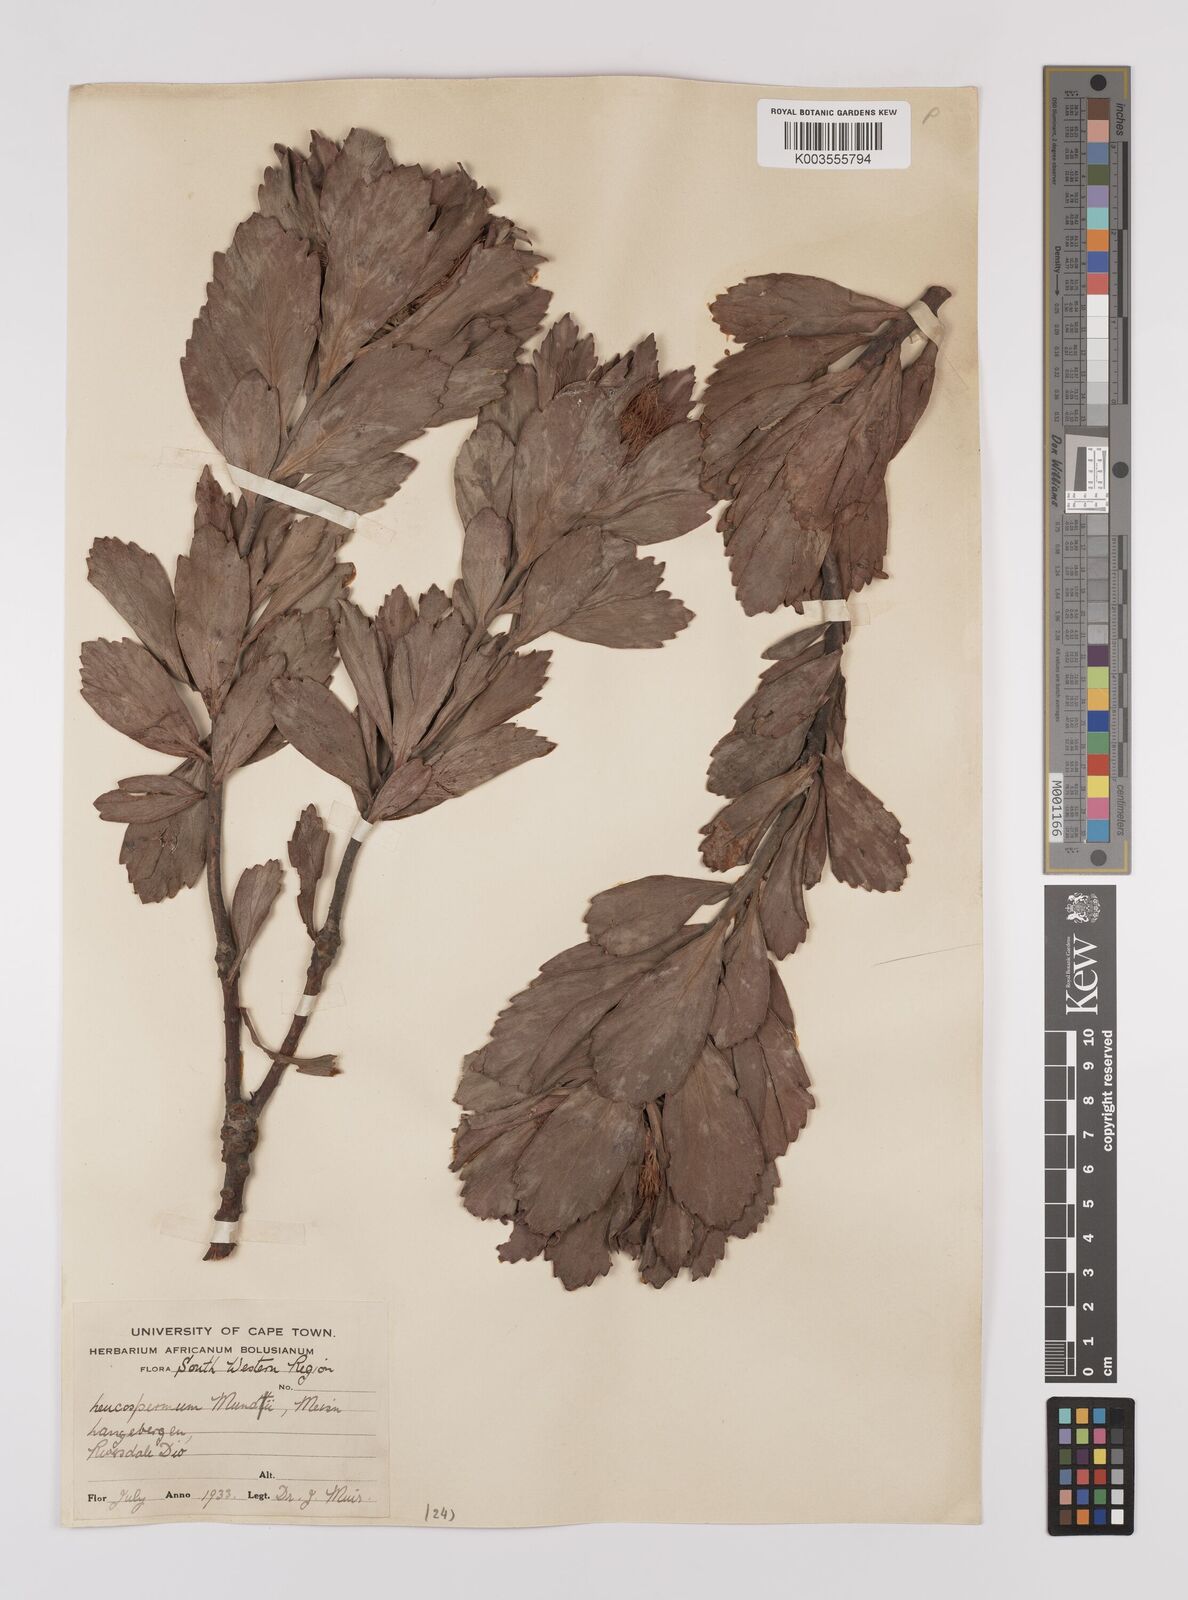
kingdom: Plantae
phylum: Tracheophyta
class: Magnoliopsida
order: Proteales
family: Proteaceae
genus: Leucospermum
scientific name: Leucospermum mundii
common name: Langeberg pincushion
